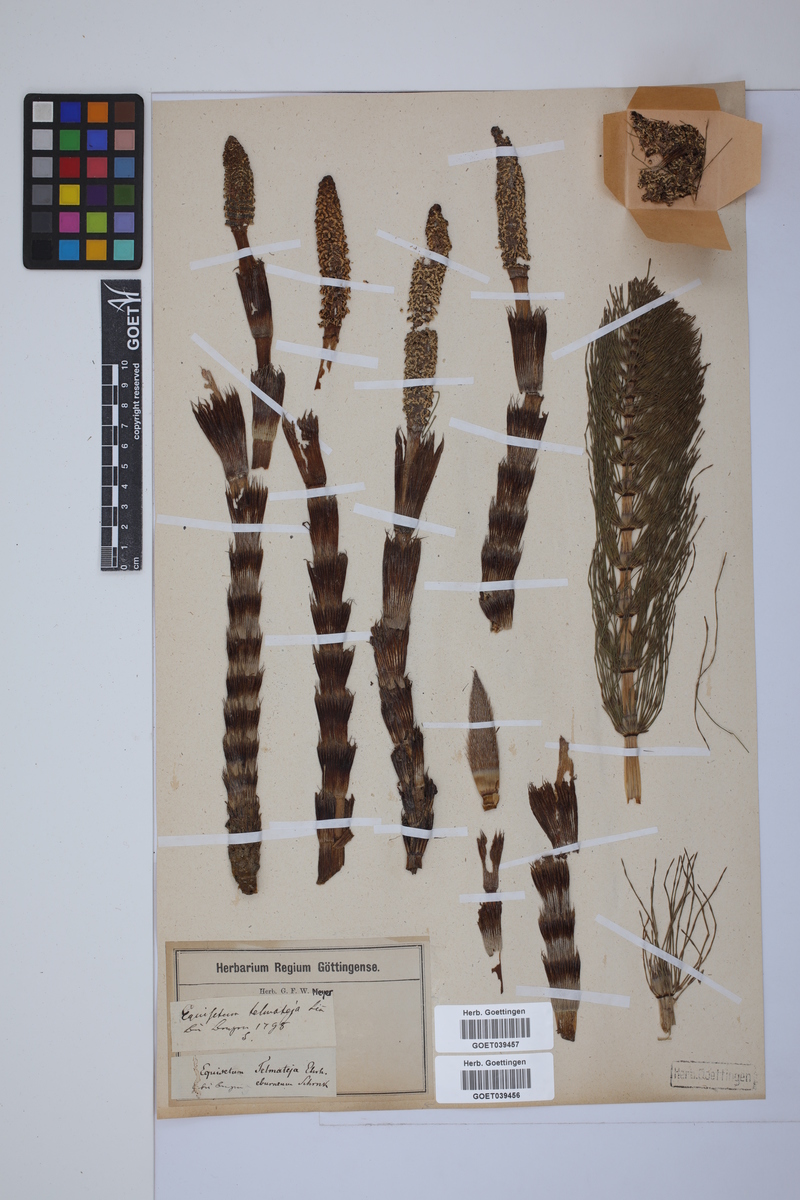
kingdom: Plantae
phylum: Tracheophyta
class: Polypodiopsida
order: Equisetales
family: Equisetaceae
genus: Equisetum
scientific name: Equisetum telmateia
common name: Great horsetail
